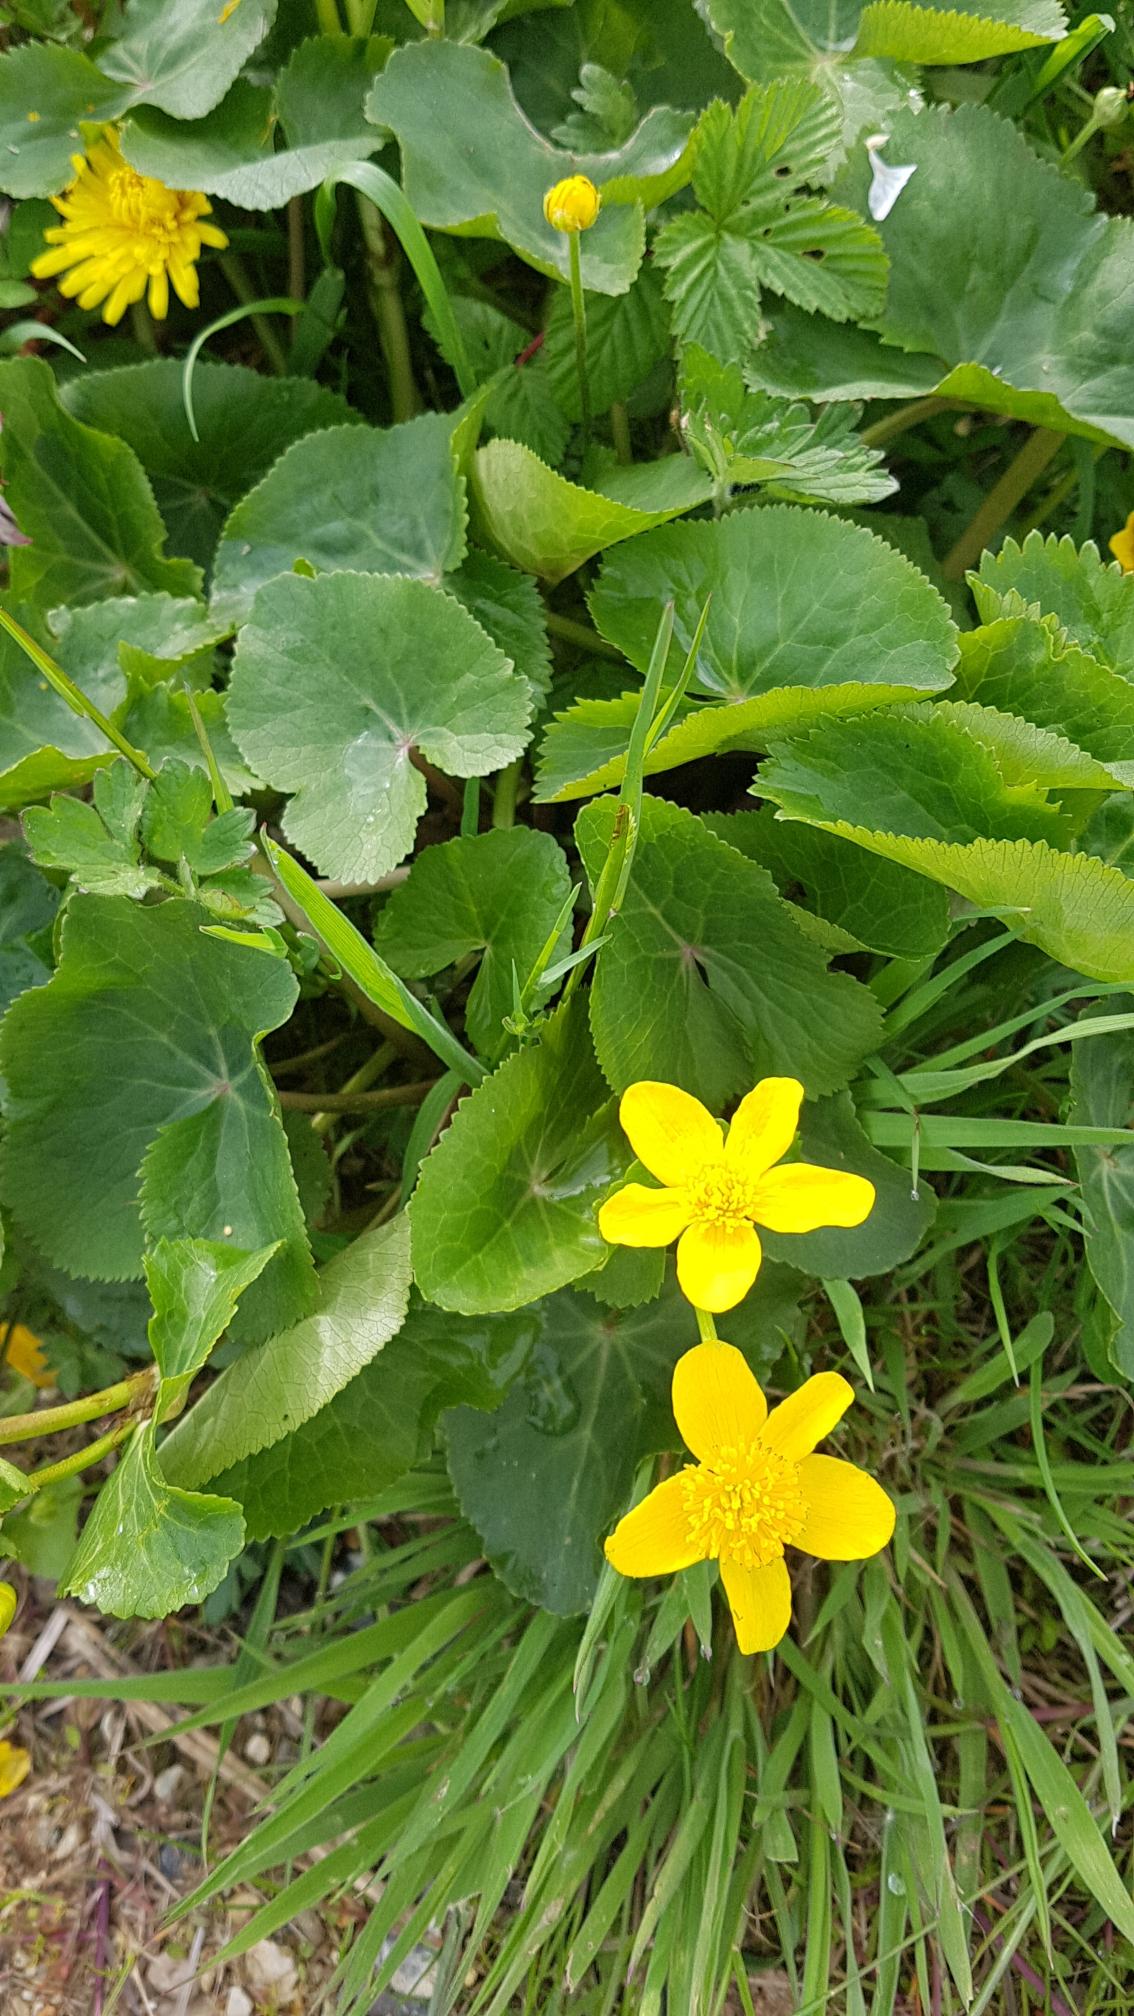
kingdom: Plantae
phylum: Tracheophyta
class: Magnoliopsida
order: Ranunculales
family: Ranunculaceae
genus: Caltha
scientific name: Caltha palustris
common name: Eng-kabbeleje
